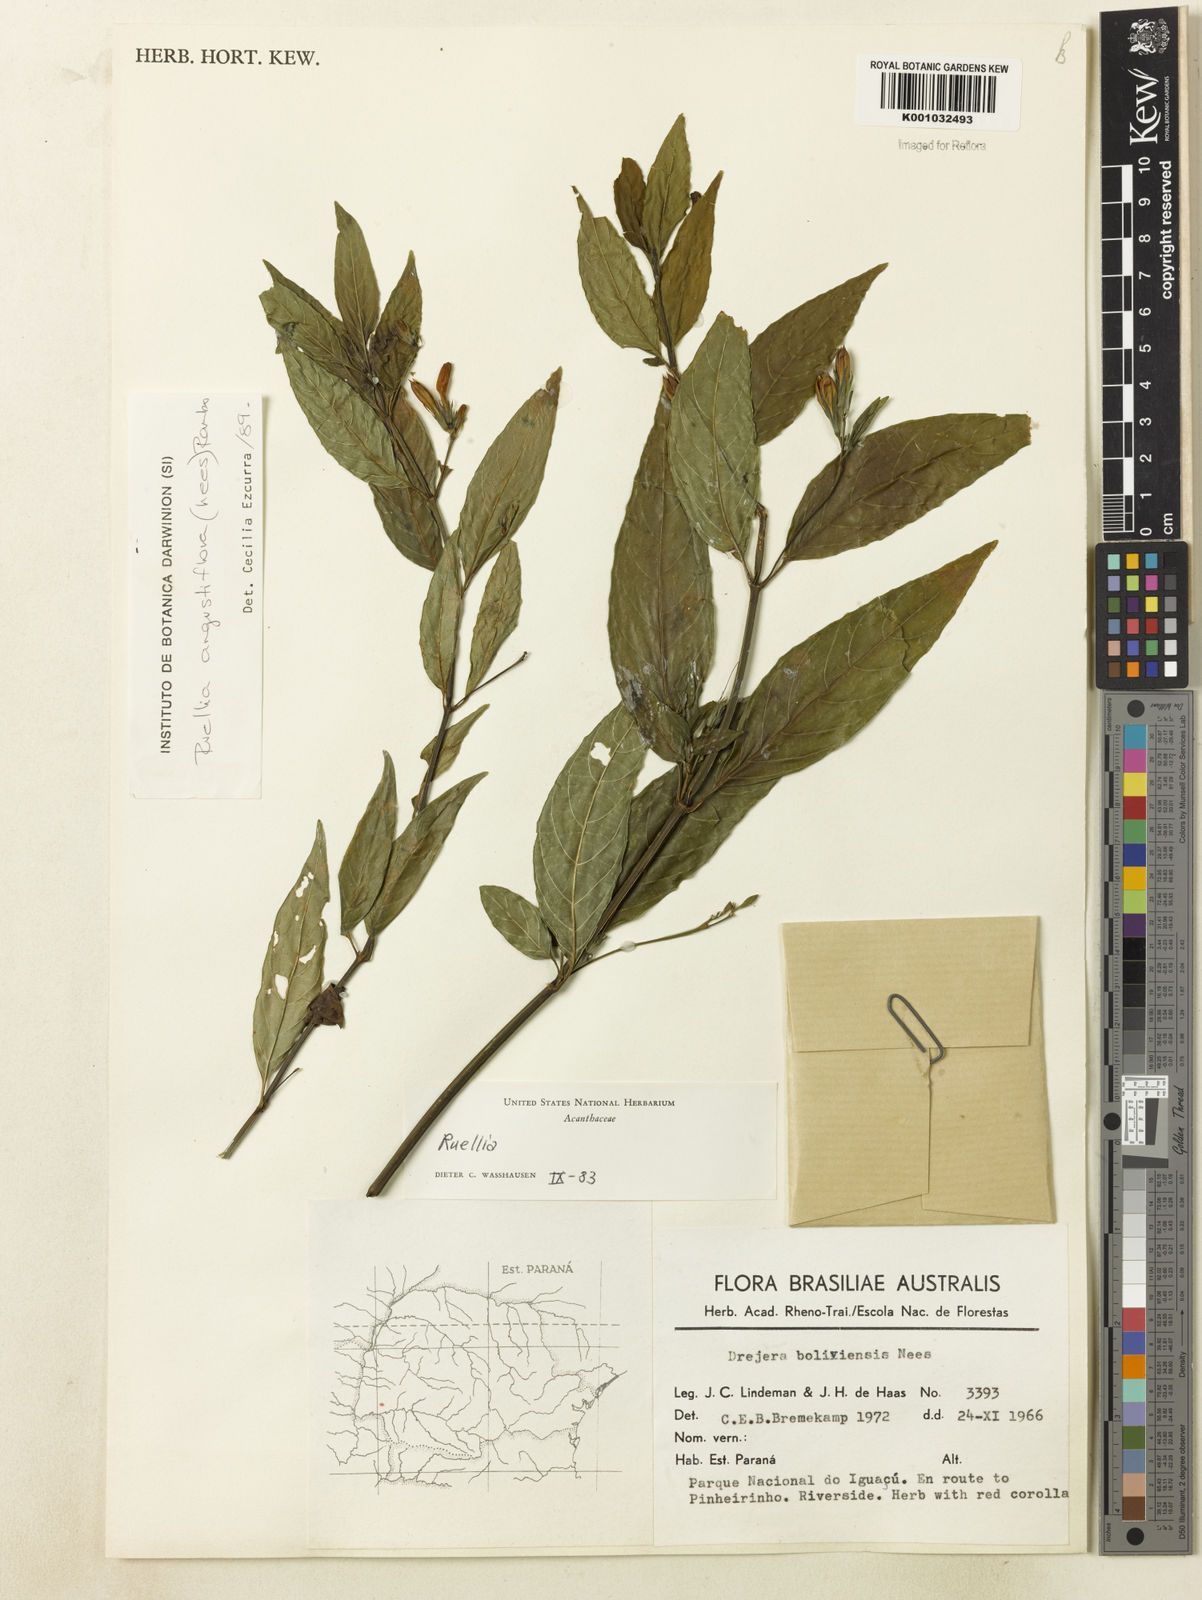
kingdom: Plantae
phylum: Tracheophyta
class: Magnoliopsida
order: Lamiales
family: Acanthaceae
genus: Ruellia
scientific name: Ruellia angustiflora
